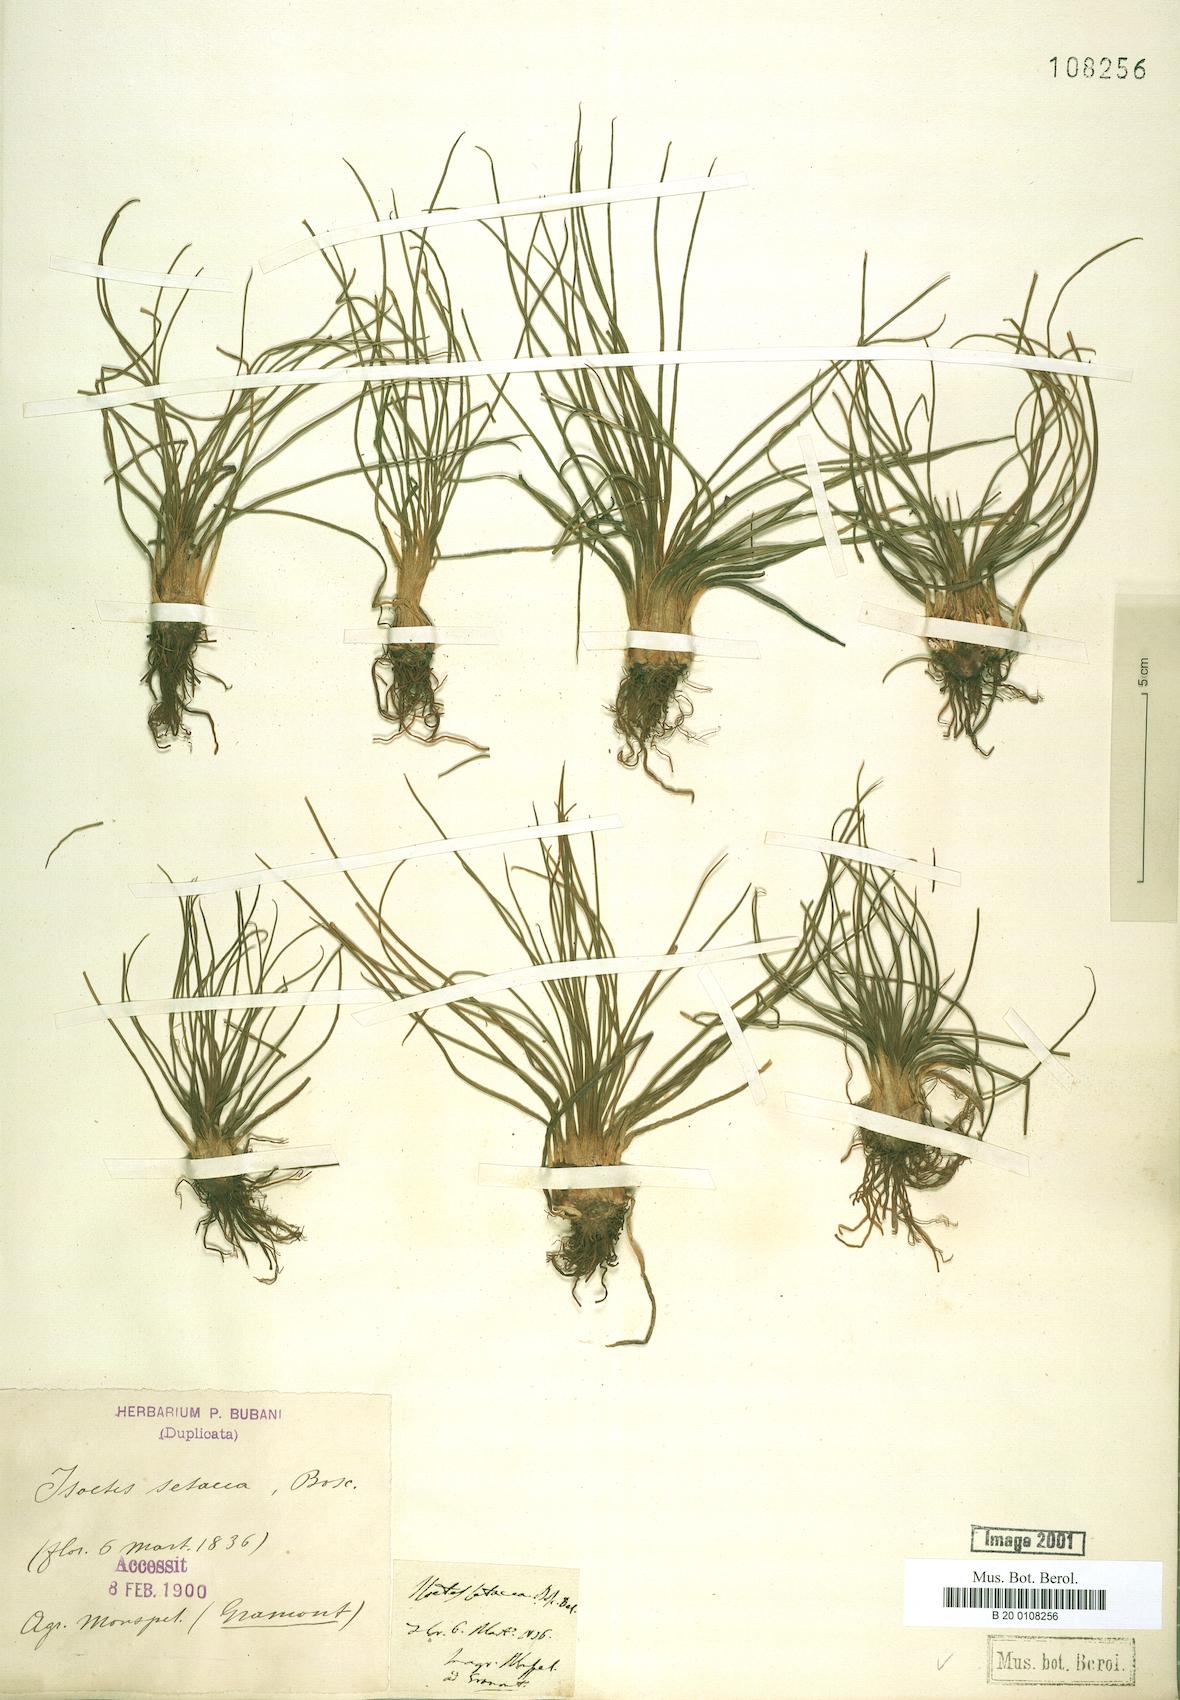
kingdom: Plantae
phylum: Tracheophyta
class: Lycopodiopsida
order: Isoetales
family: Isoetaceae
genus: Isoetes
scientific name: Isoetes lacustris
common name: Common quillwort
